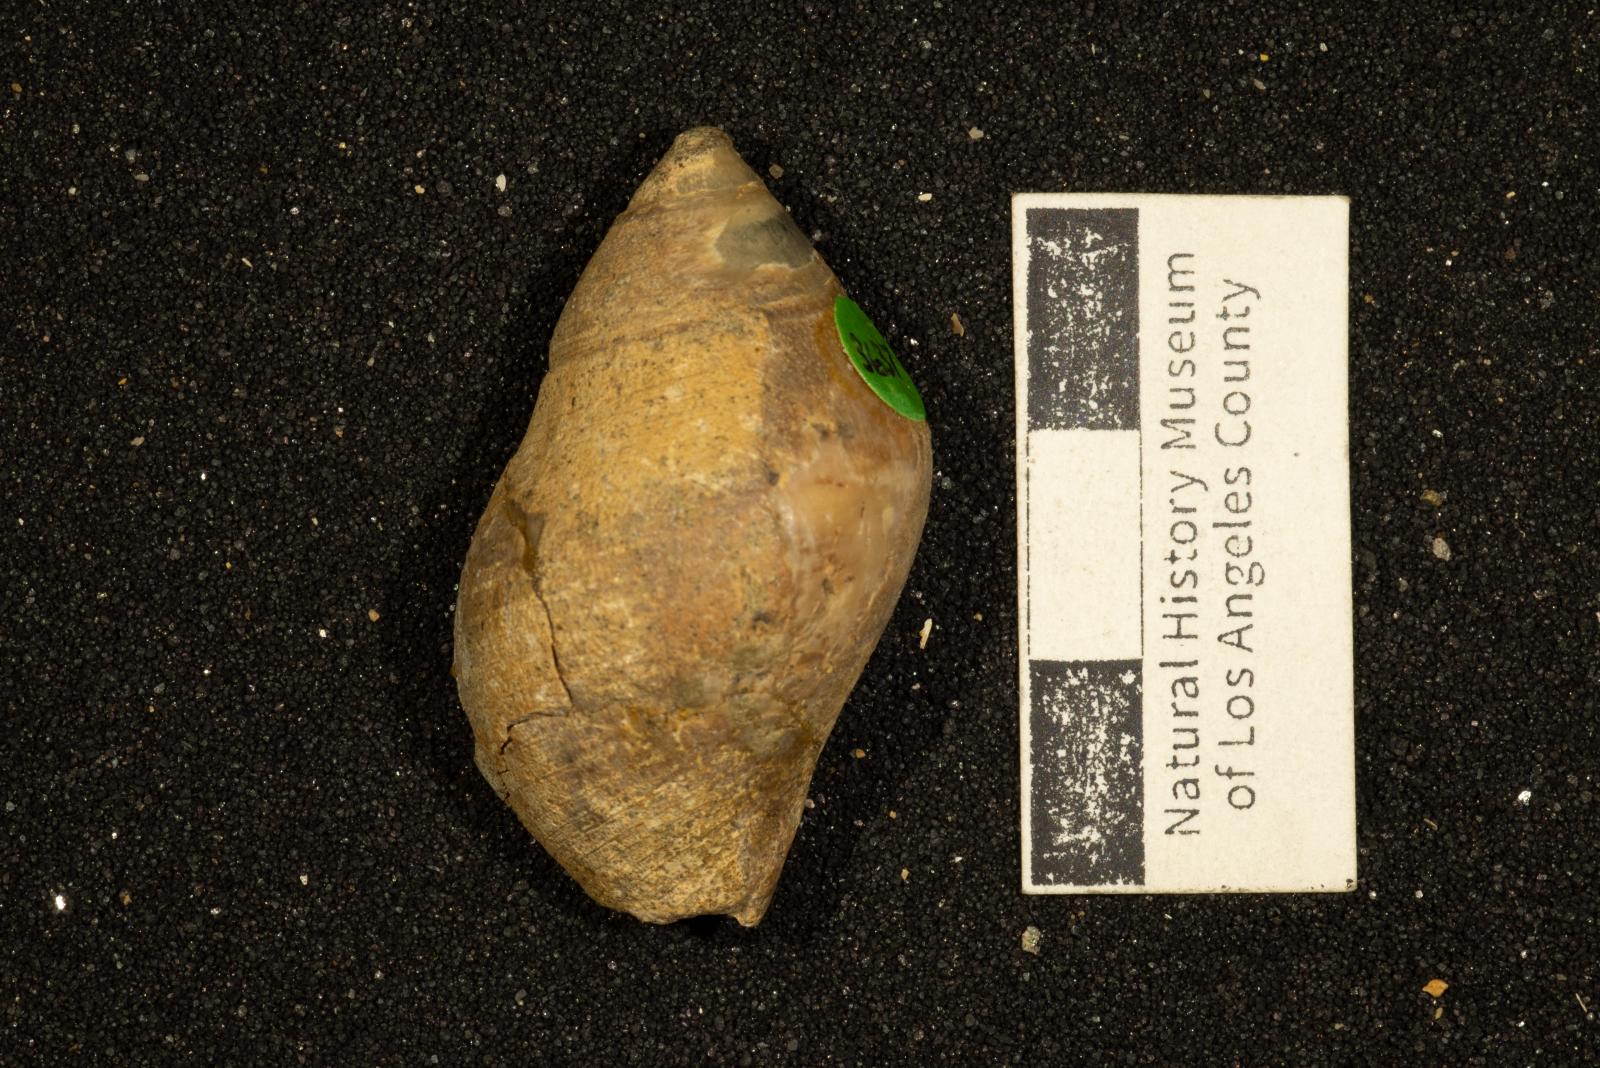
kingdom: Animalia
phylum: Mollusca
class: Gastropoda
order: Neogastropoda
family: Cominellidae
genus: Cominella
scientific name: Cominella
